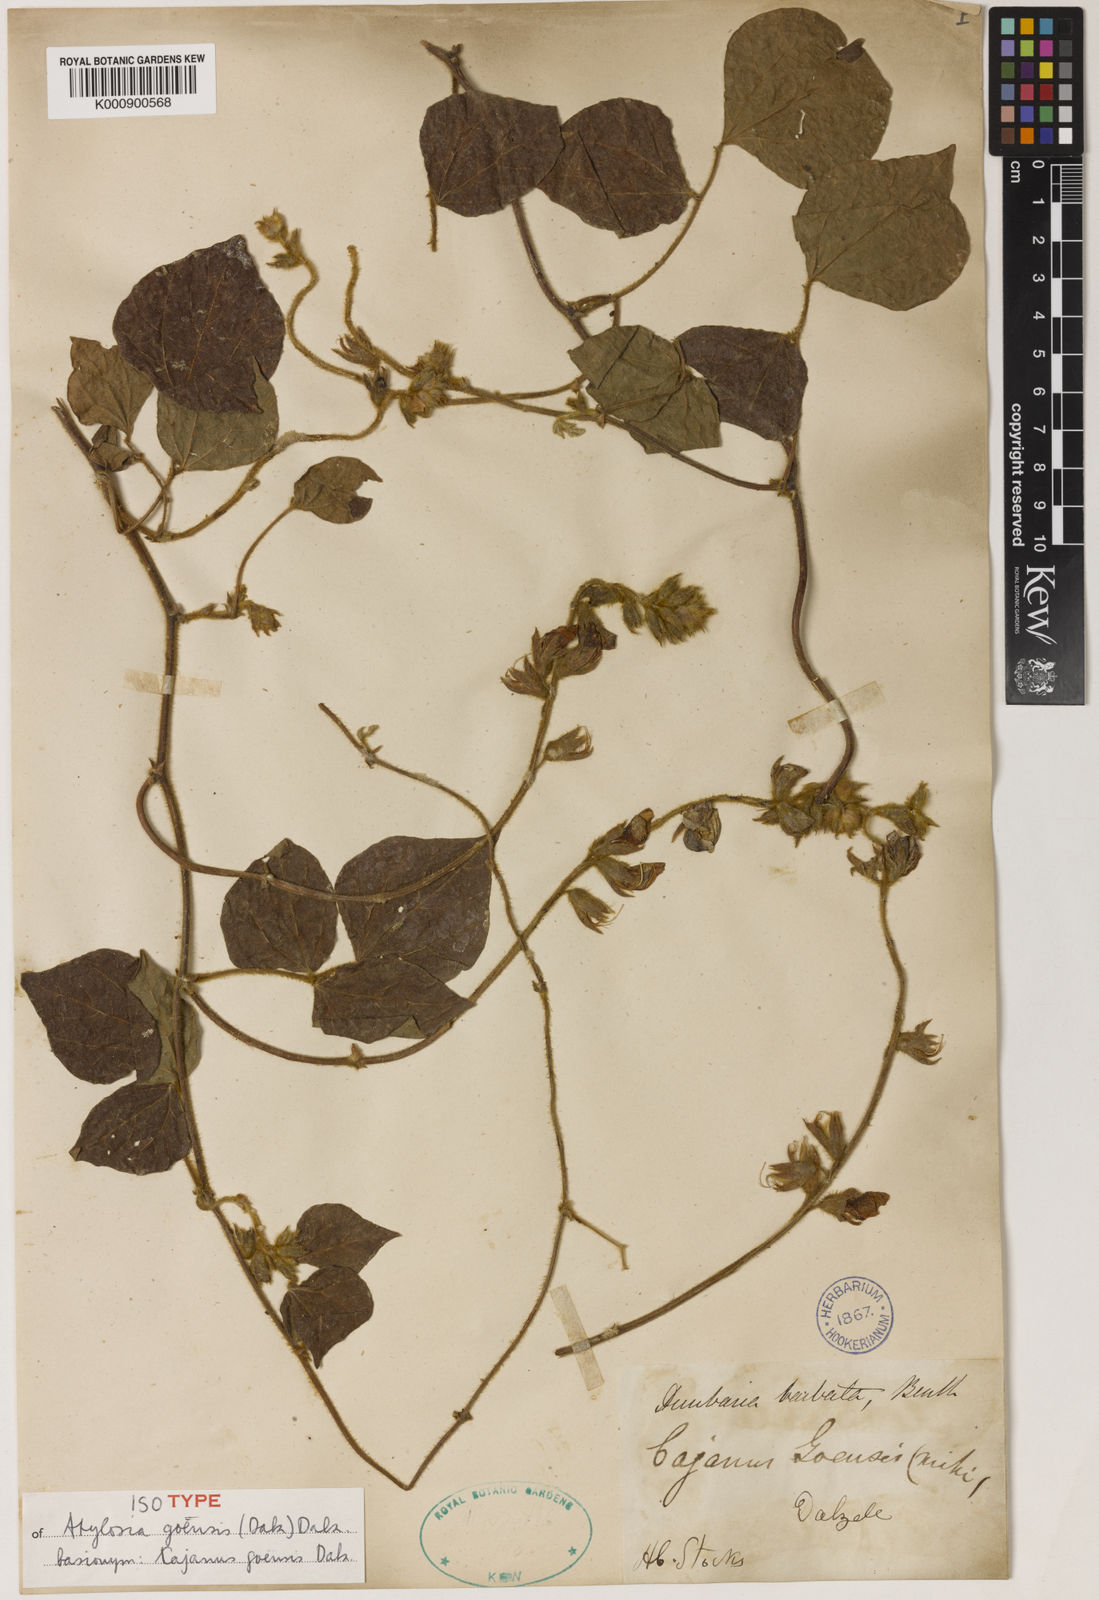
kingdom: Plantae
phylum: Tracheophyta
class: Magnoliopsida
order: Fabales
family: Fabaceae
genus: Cajanus
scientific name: Cajanus goensis
